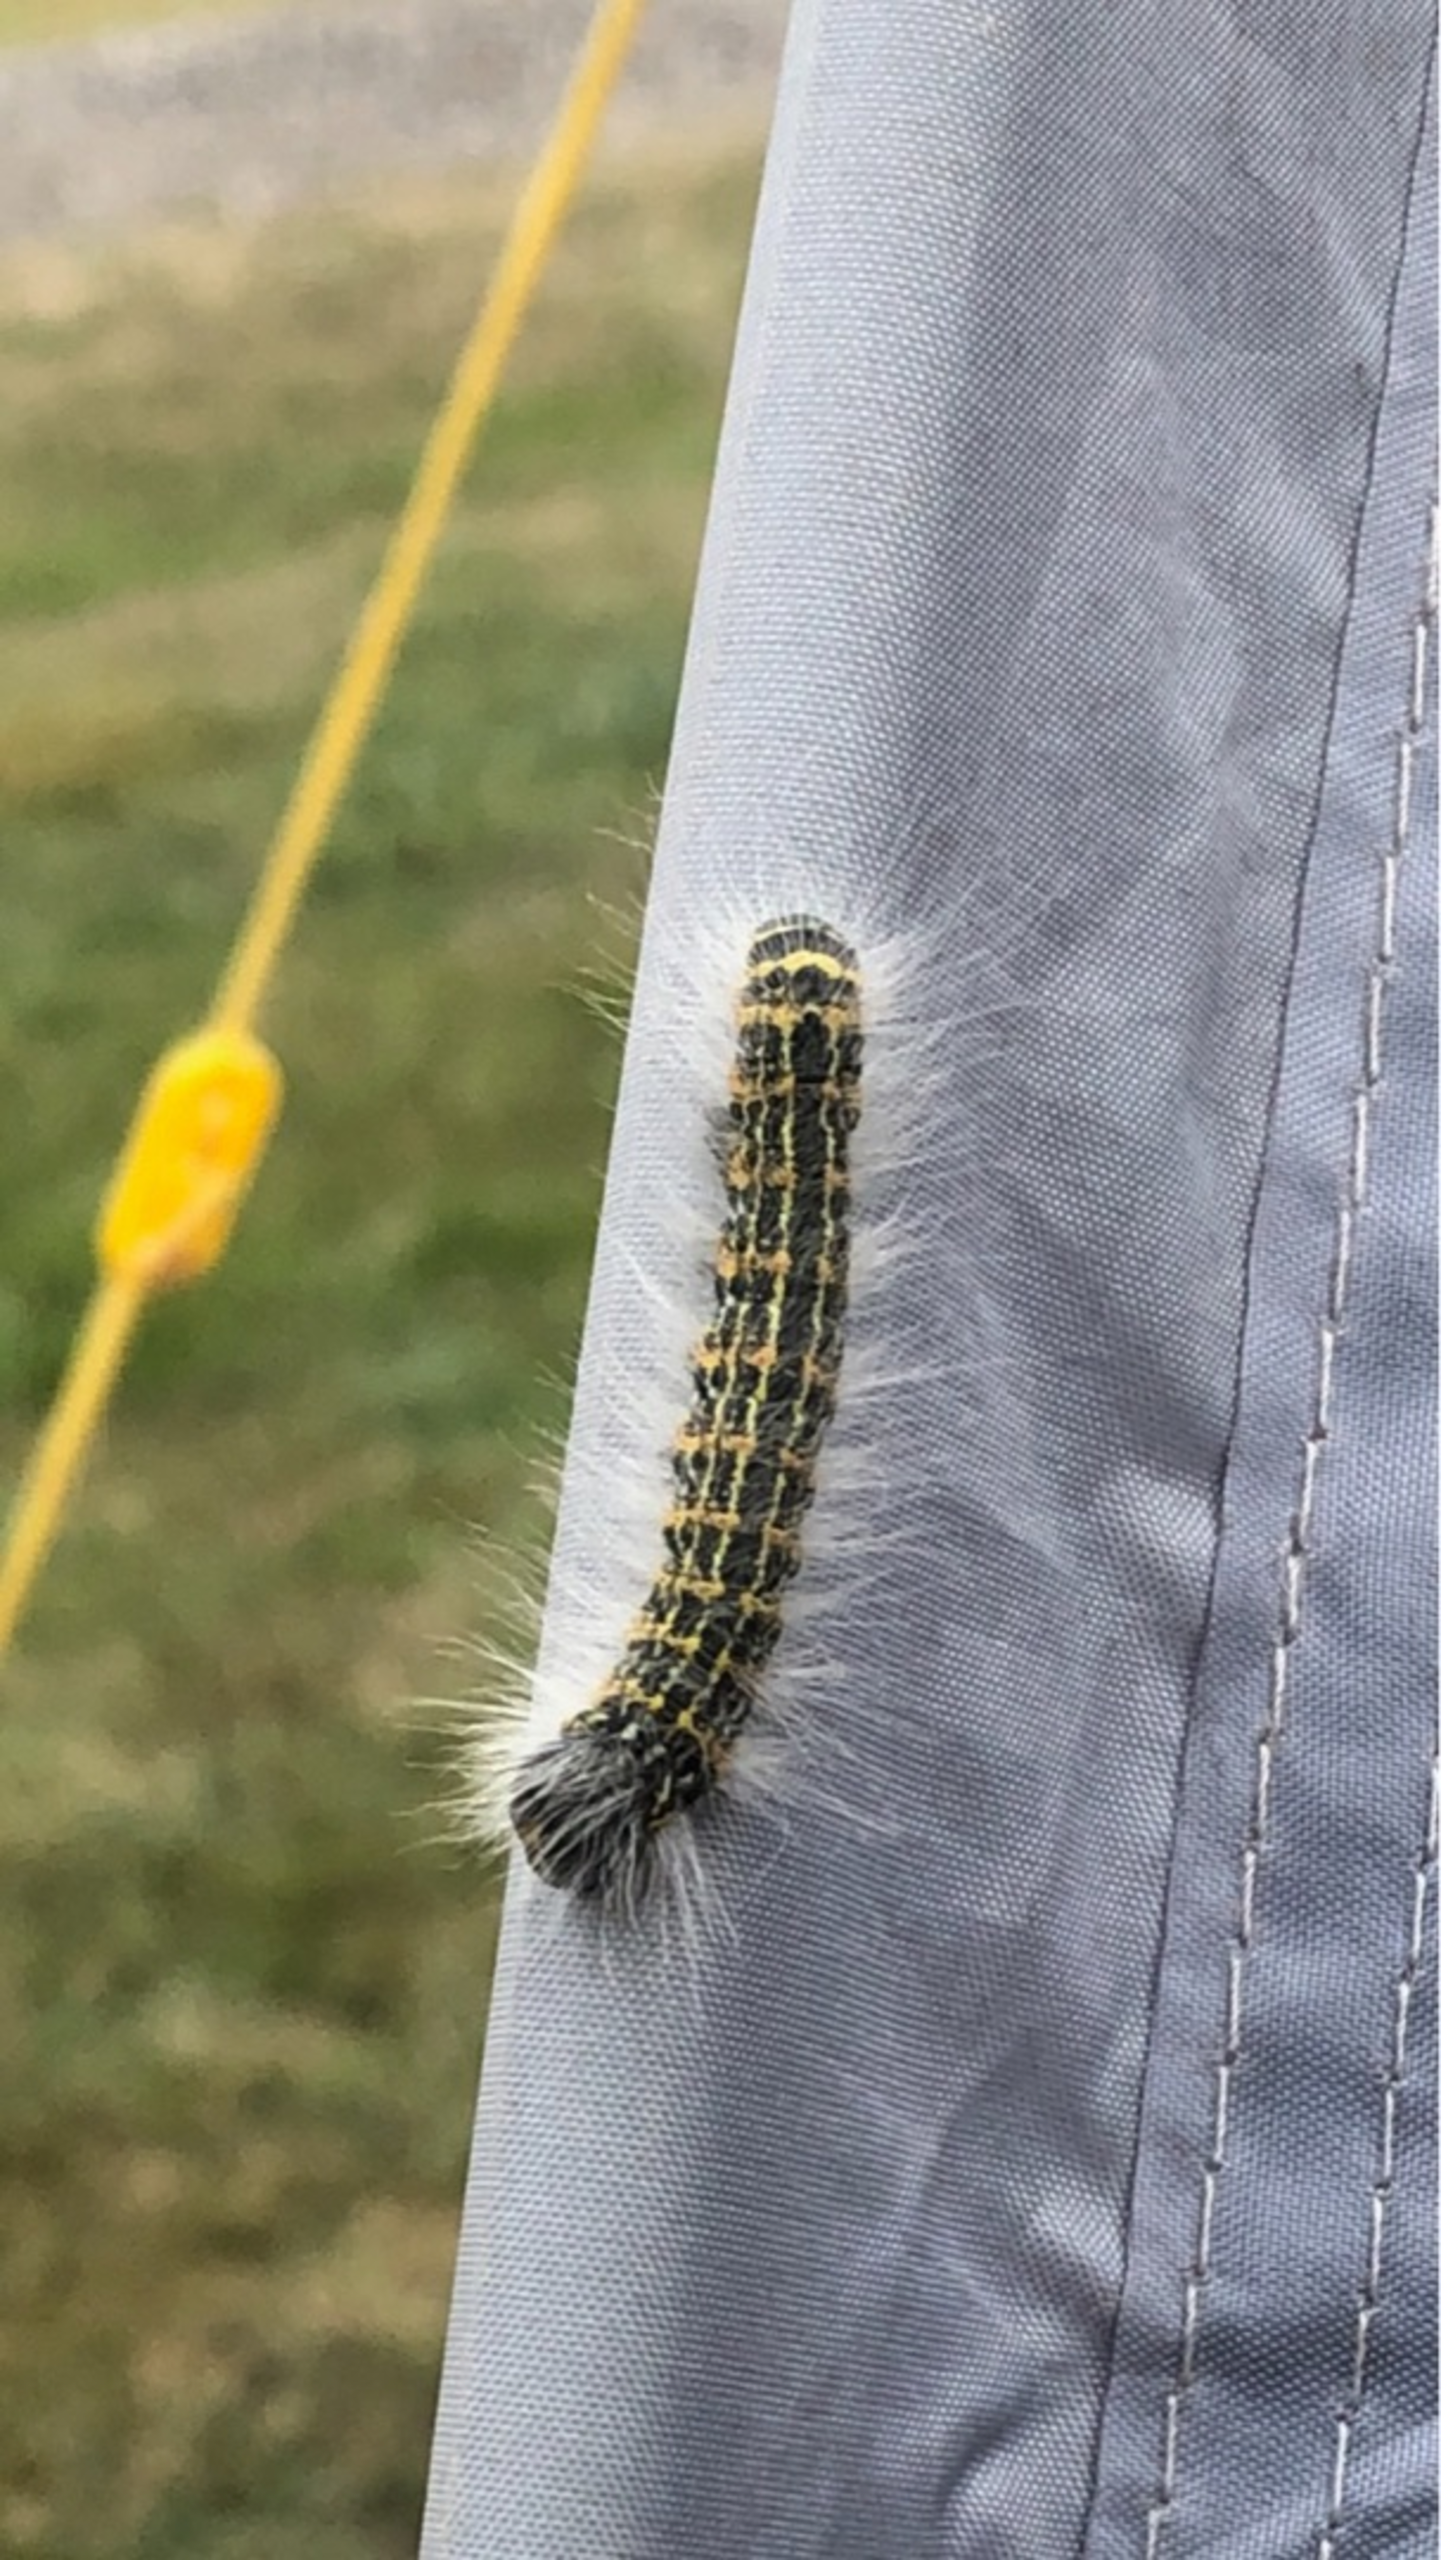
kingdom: Animalia
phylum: Arthropoda
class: Insecta
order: Lepidoptera
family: Notodontidae
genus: Phalera
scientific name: Phalera bucephala
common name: Måneplet
